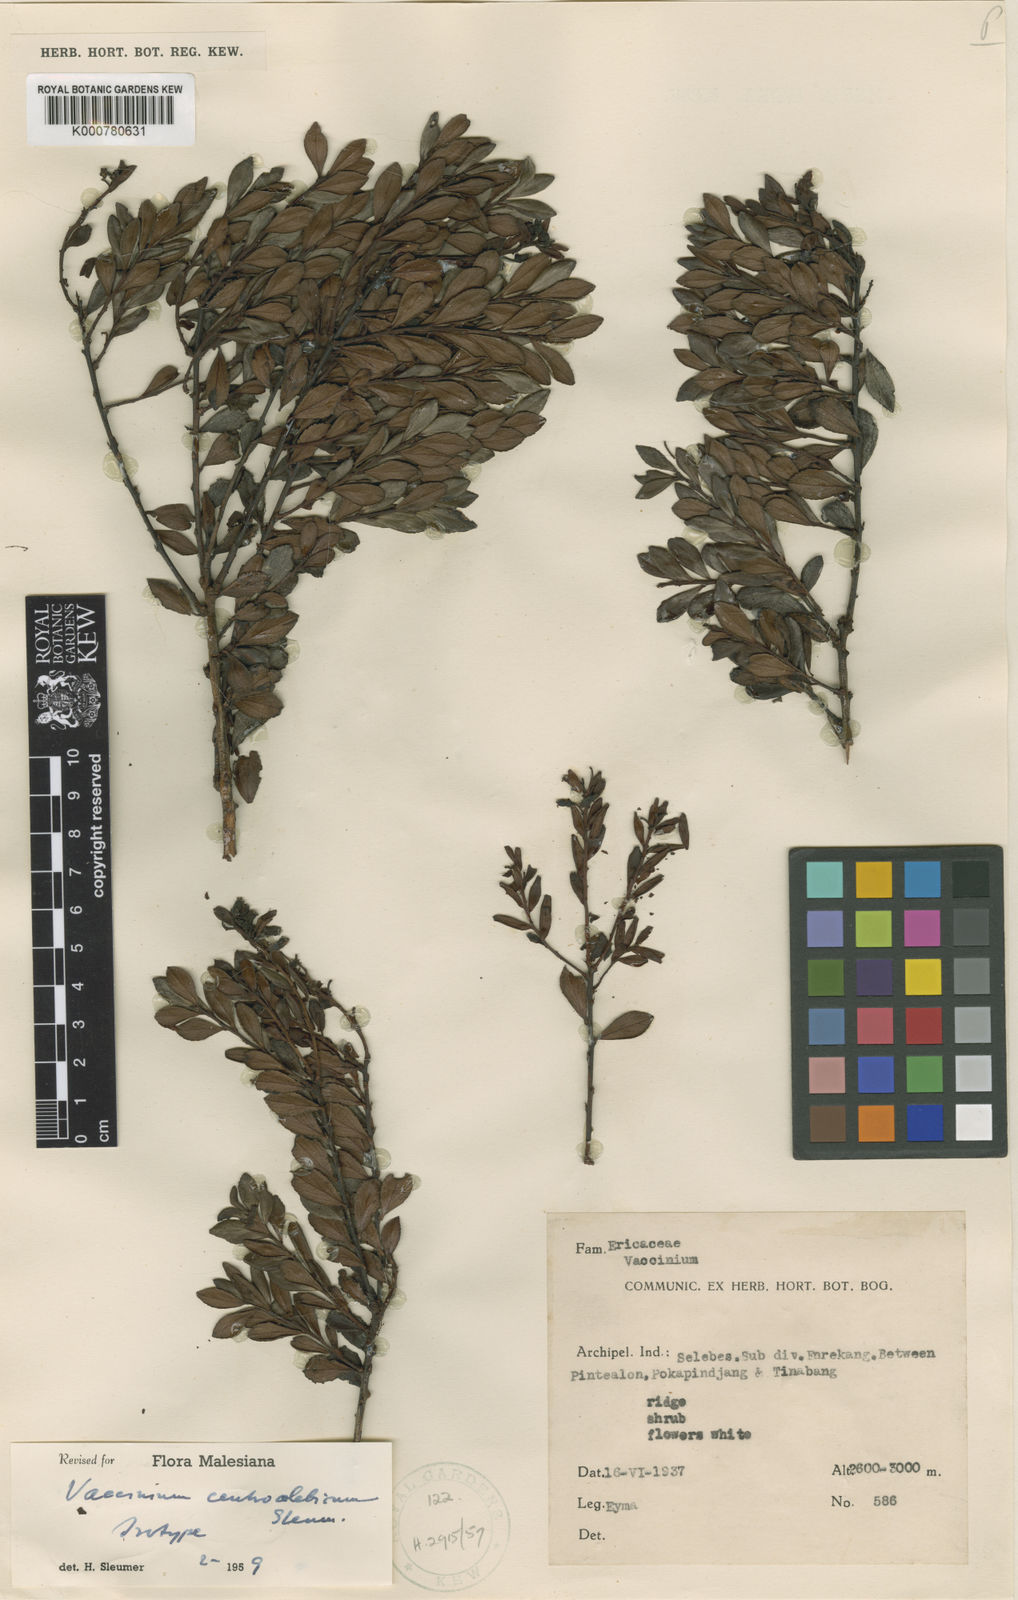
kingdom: Plantae
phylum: Tracheophyta
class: Magnoliopsida
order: Ericales
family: Ericaceae
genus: Vaccinium
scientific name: Vaccinium centrocelebicum
